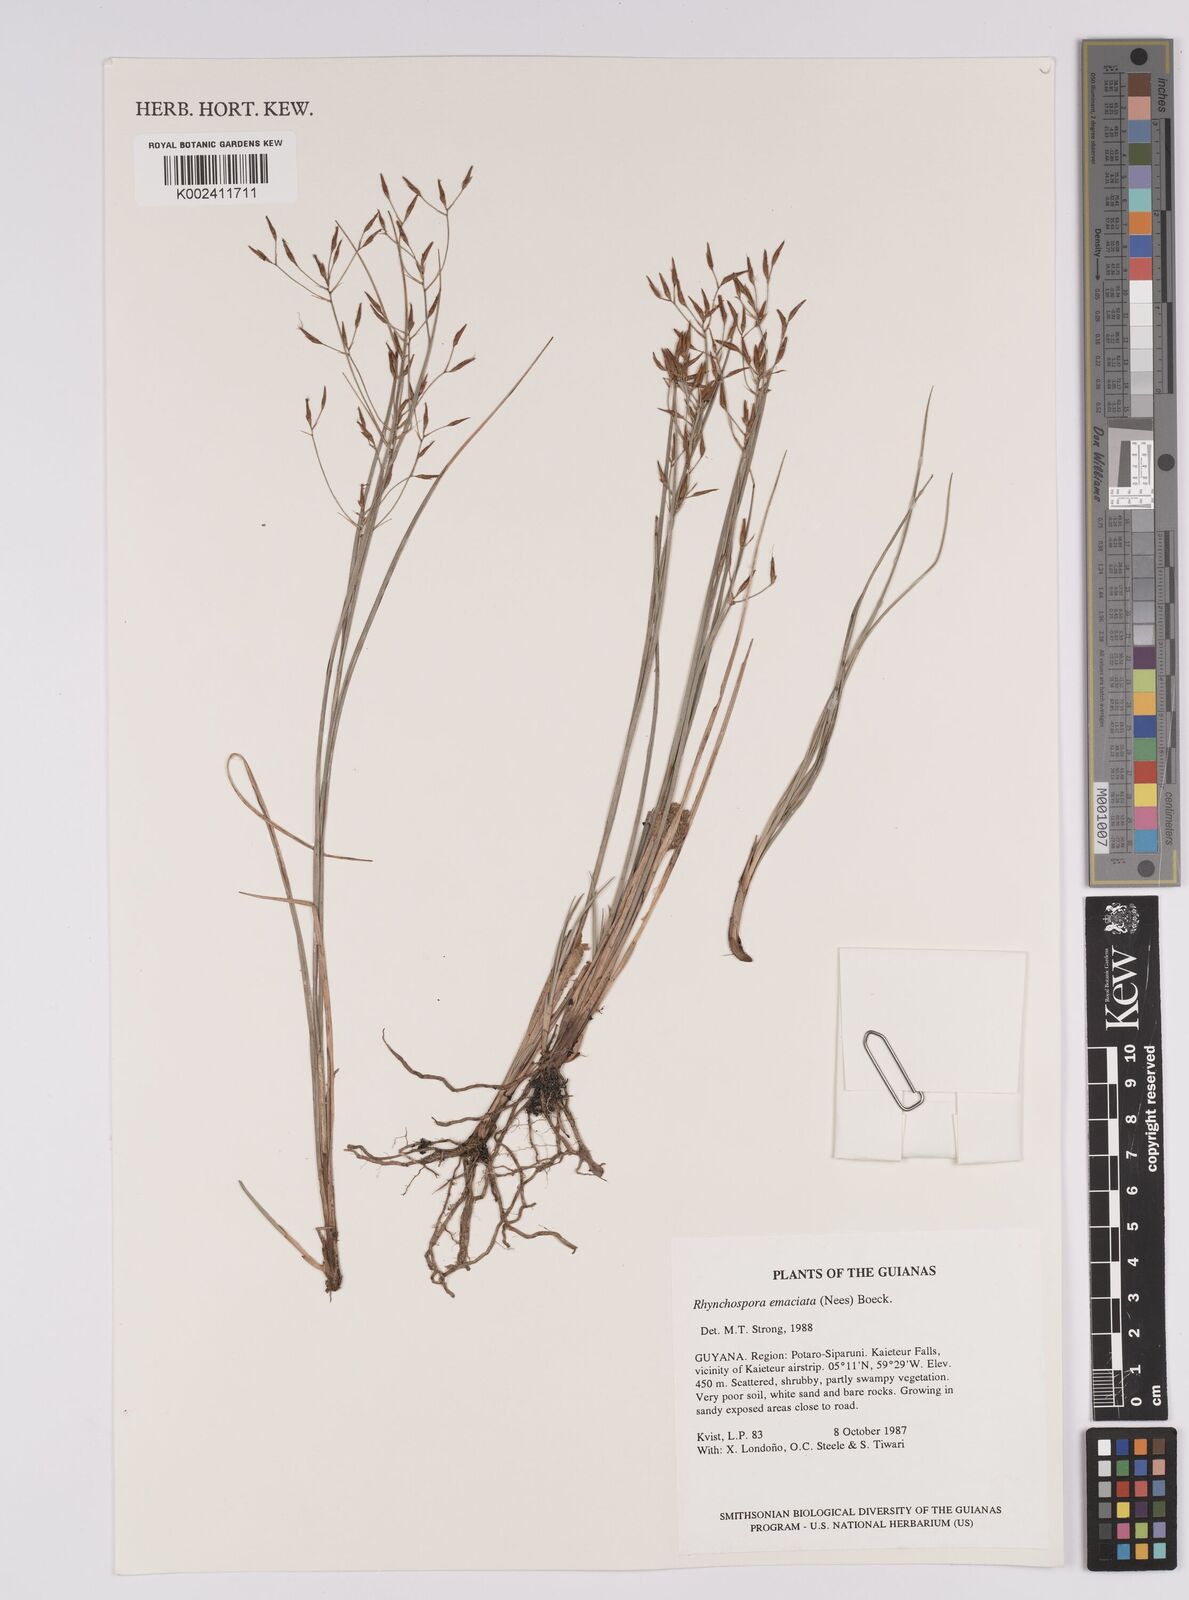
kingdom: Plantae
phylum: Tracheophyta
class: Liliopsida
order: Poales
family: Cyperaceae
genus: Rhynchospora
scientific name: Rhynchospora emaciata
